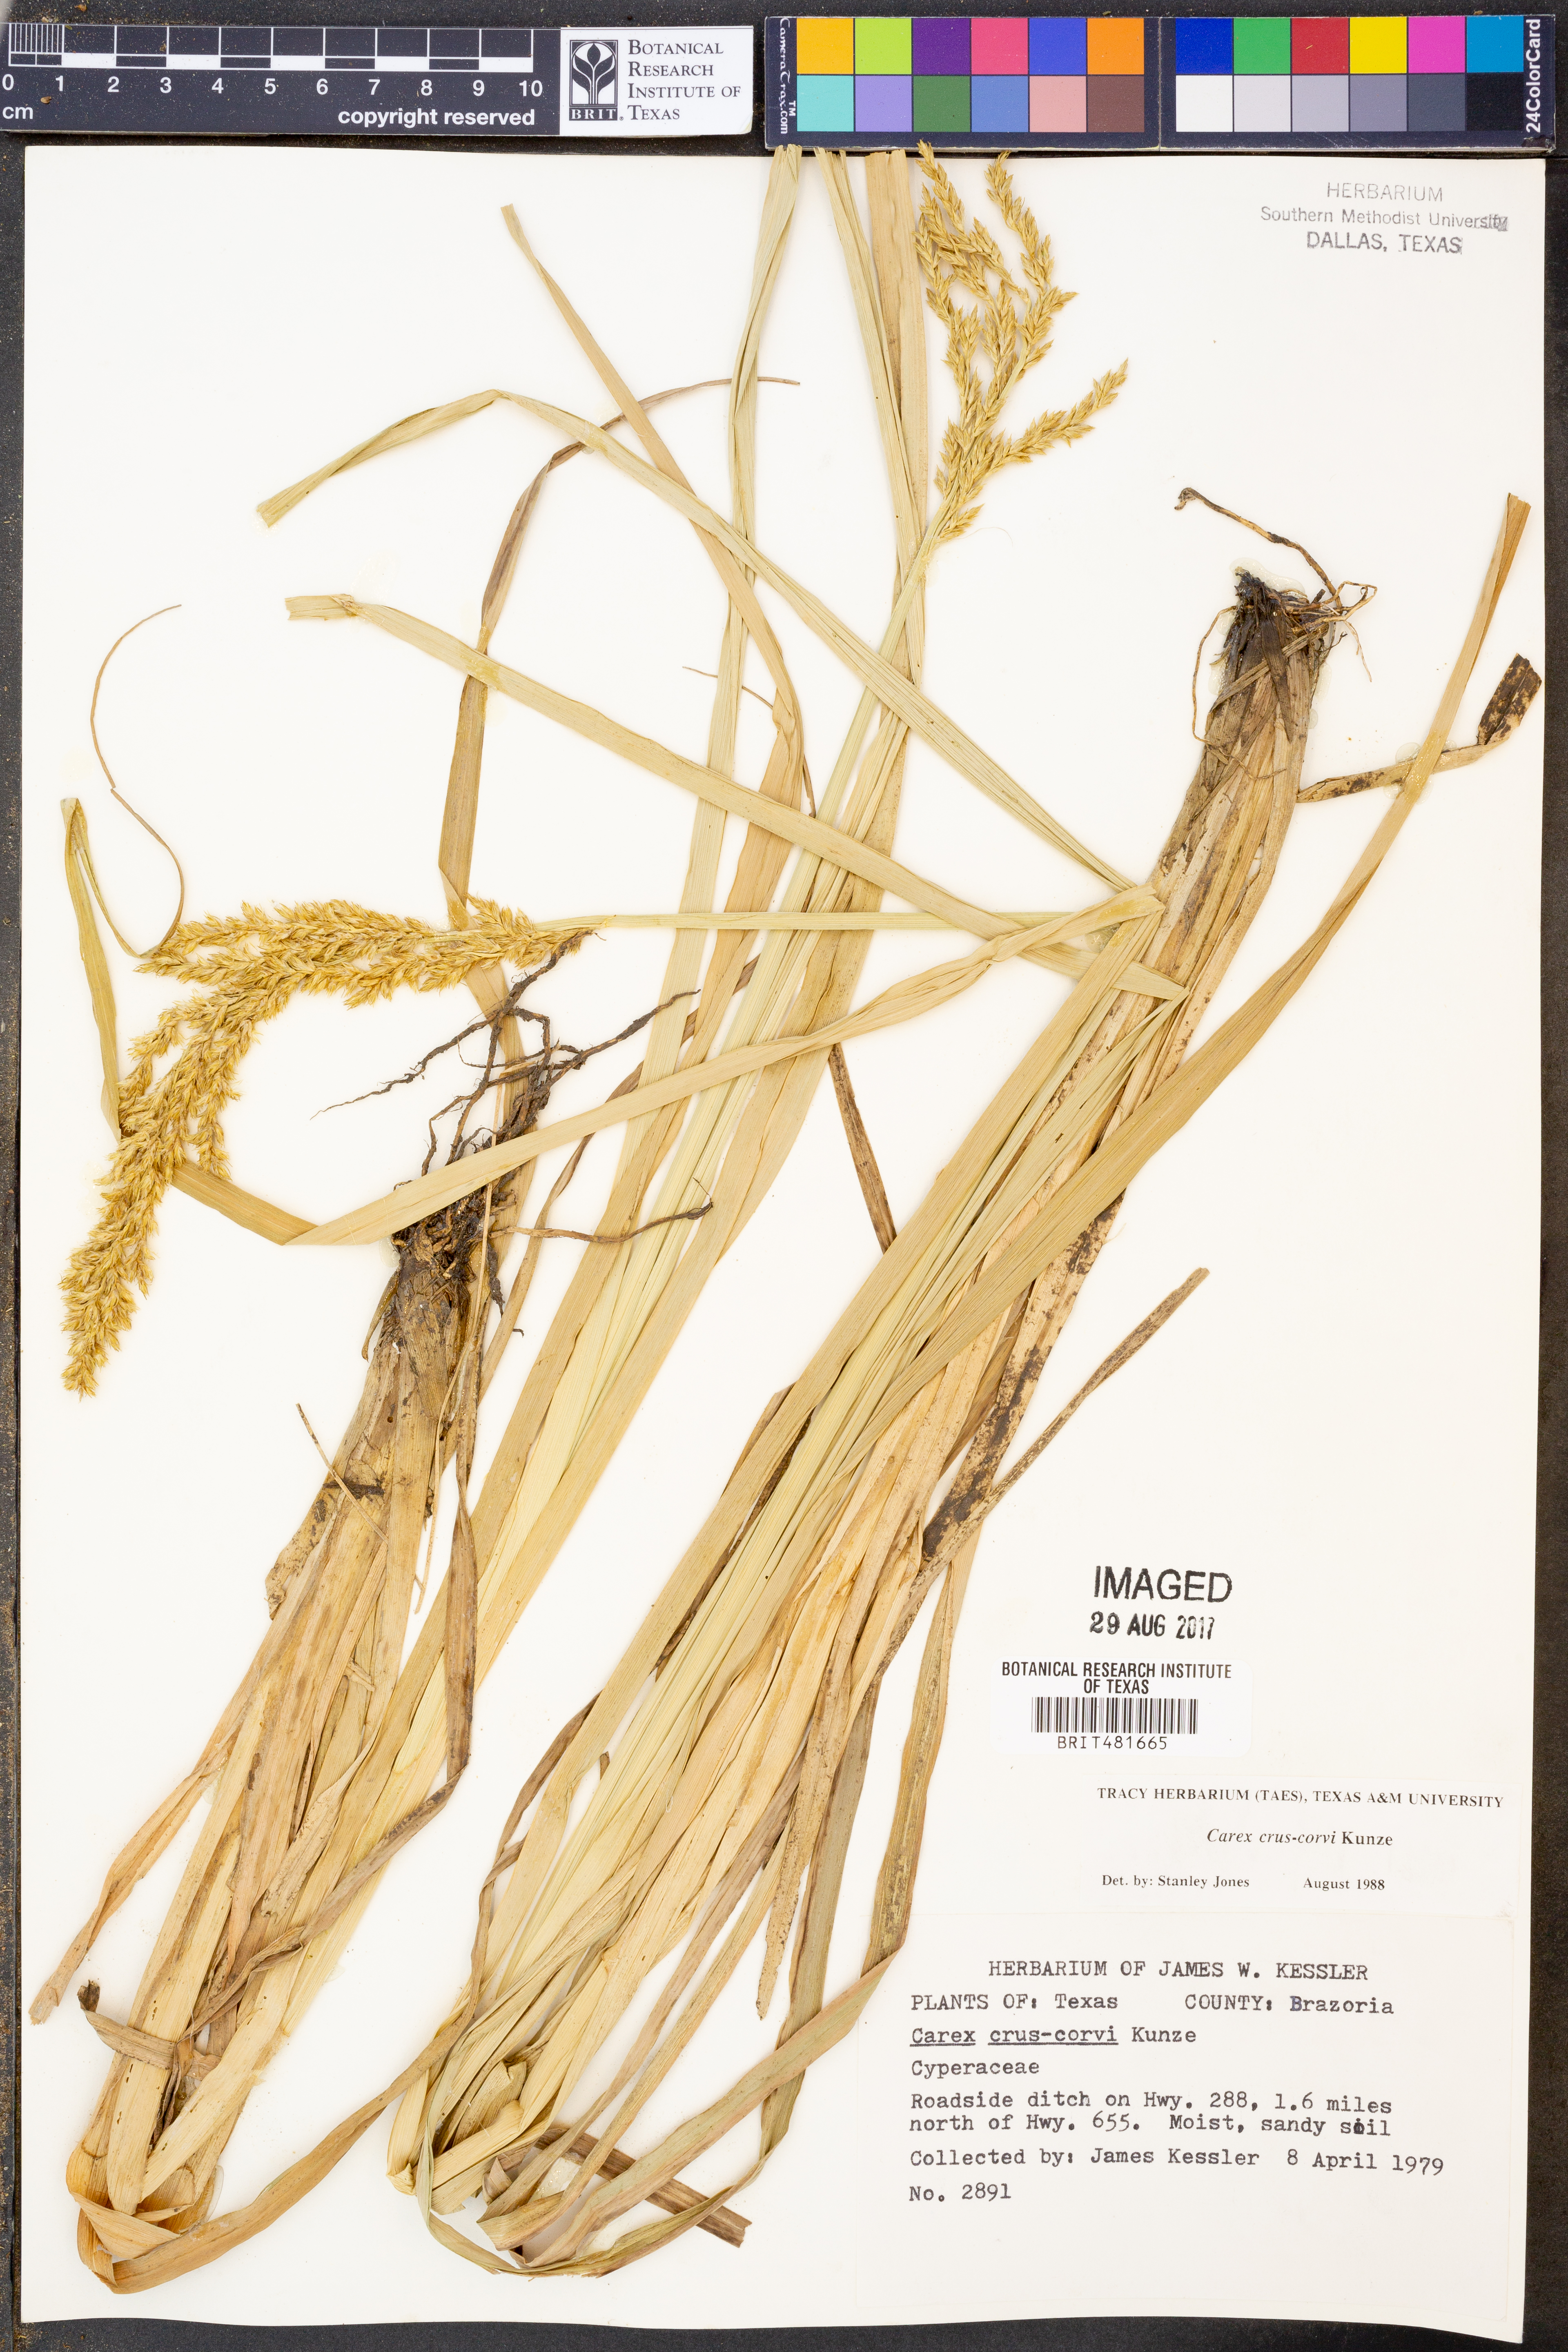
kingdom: Plantae
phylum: Tracheophyta
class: Liliopsida
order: Poales
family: Cyperaceae
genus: Carex
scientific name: Carex crus-corvi
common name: Crow-spur sedge
